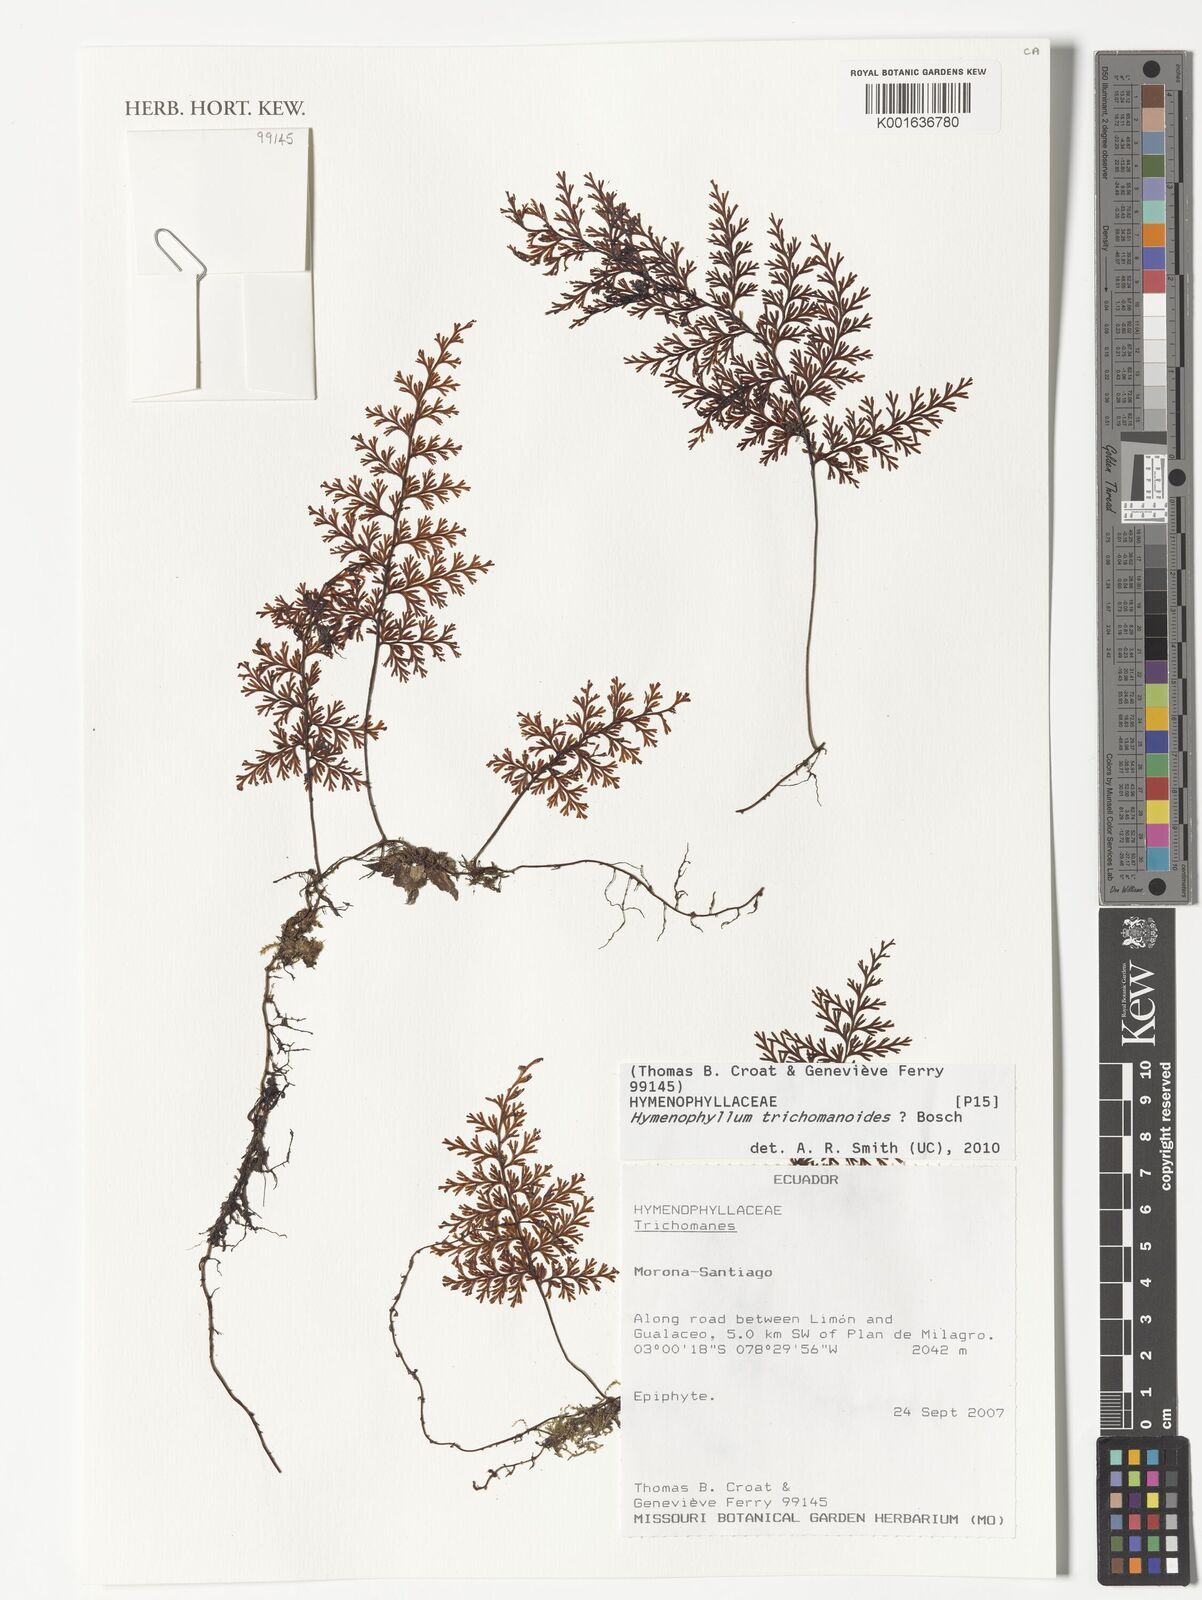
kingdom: Plantae
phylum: Tracheophyta
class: Polypodiopsida
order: Hymenophyllales
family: Hymenophyllaceae
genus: Hymenophyllum
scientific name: Hymenophyllum trichomanoides
